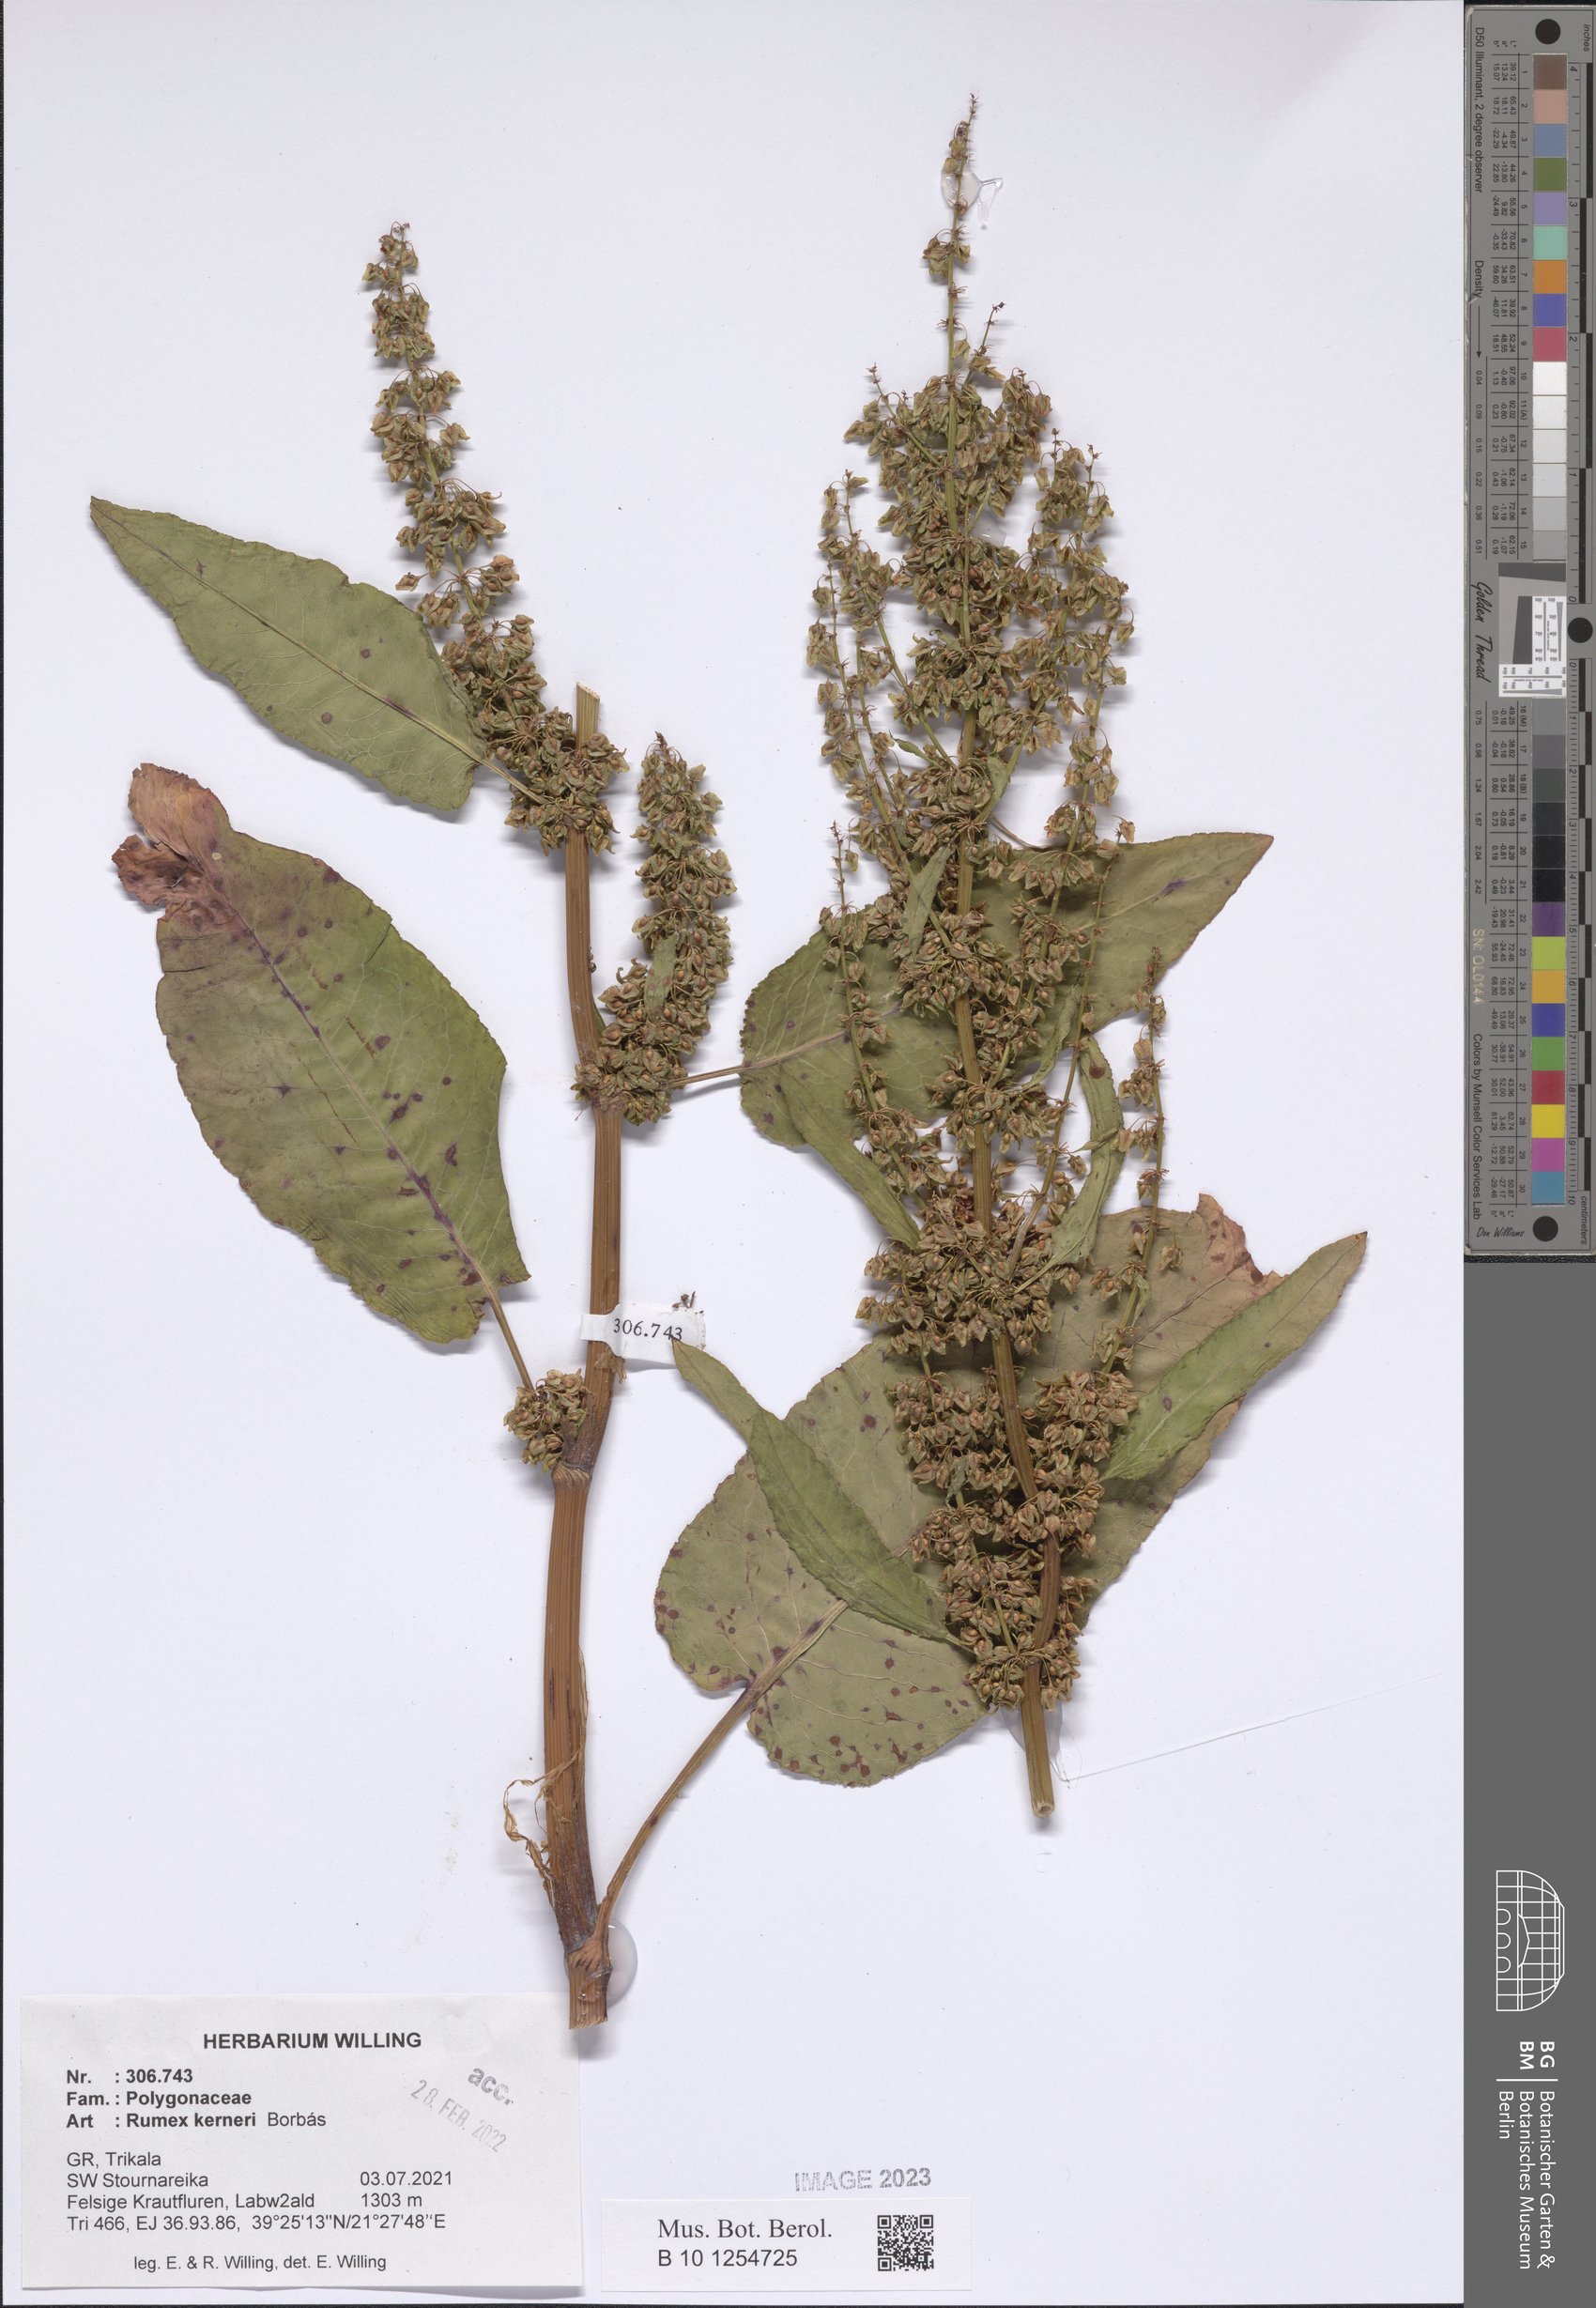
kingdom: Plantae
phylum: Tracheophyta
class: Magnoliopsida
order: Caryophyllales
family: Polygonaceae
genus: Rumex
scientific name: Rumex kerneri
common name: Kerner's dock
